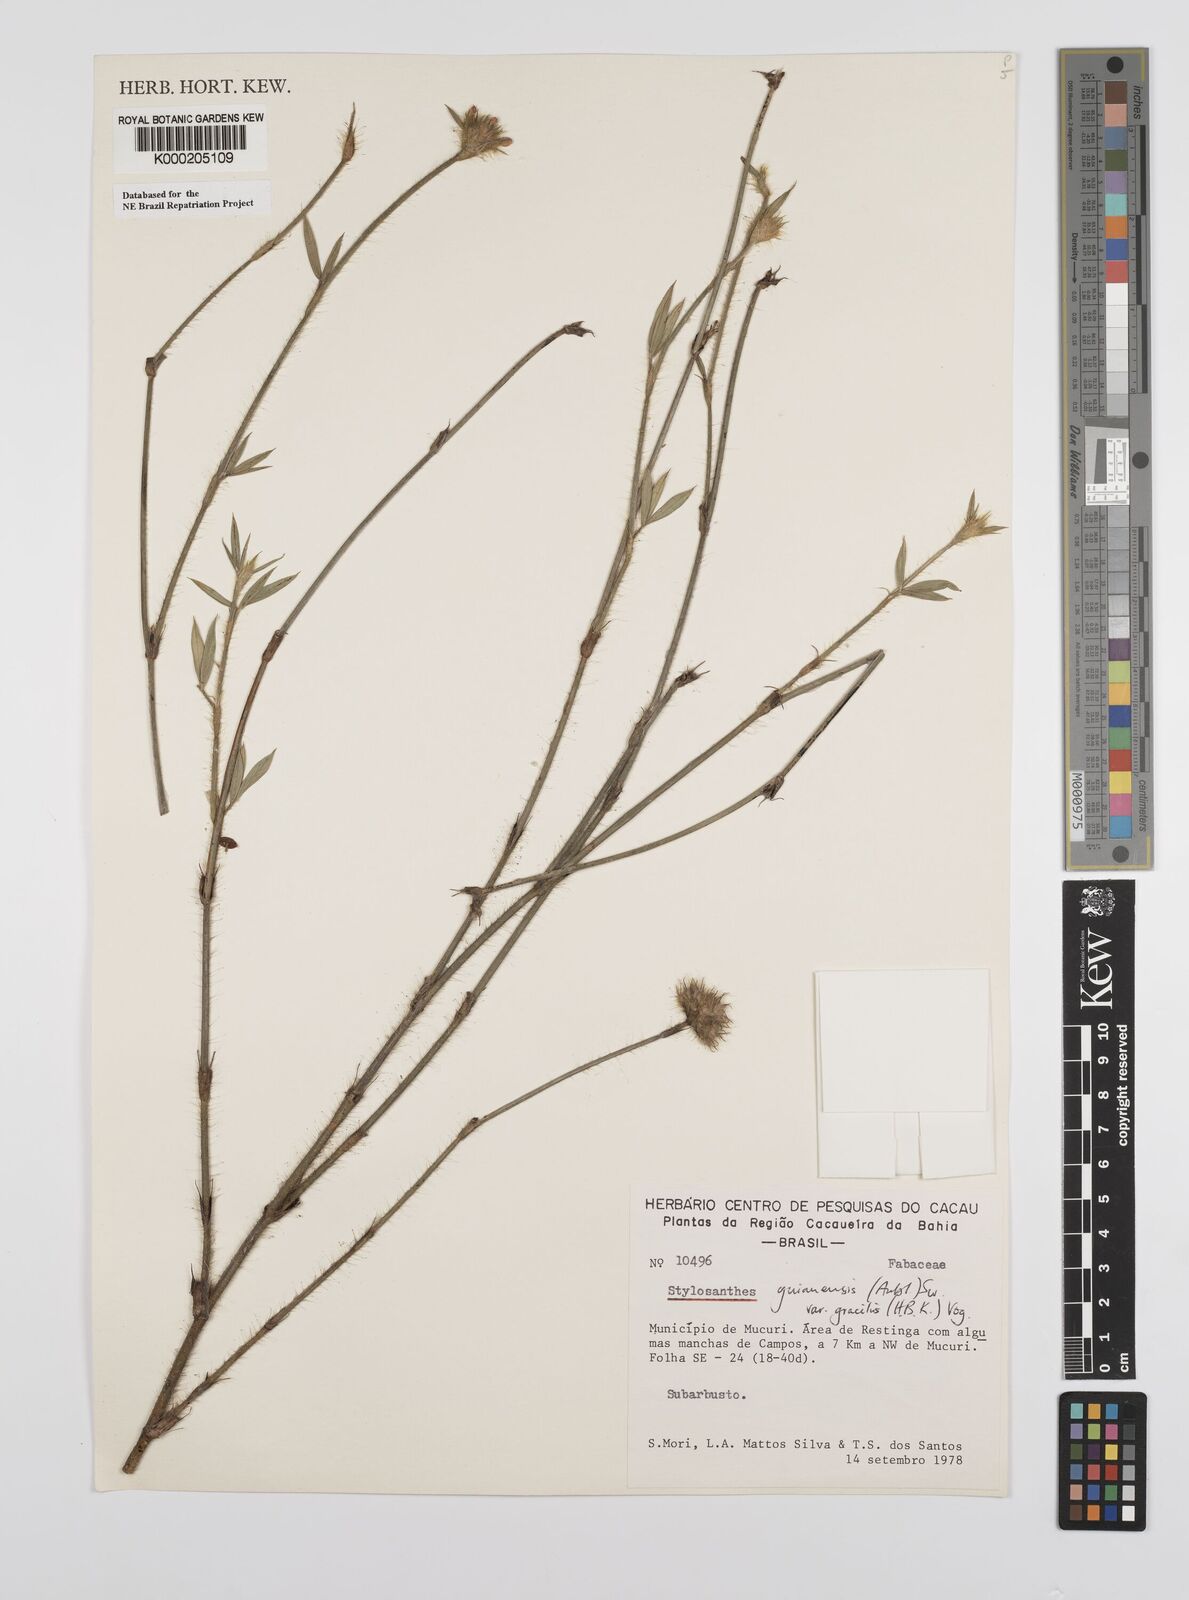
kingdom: Plantae
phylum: Tracheophyta
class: Magnoliopsida
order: Fabales
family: Fabaceae
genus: Stylosanthes
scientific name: Stylosanthes guianensis
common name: Pencil flower
